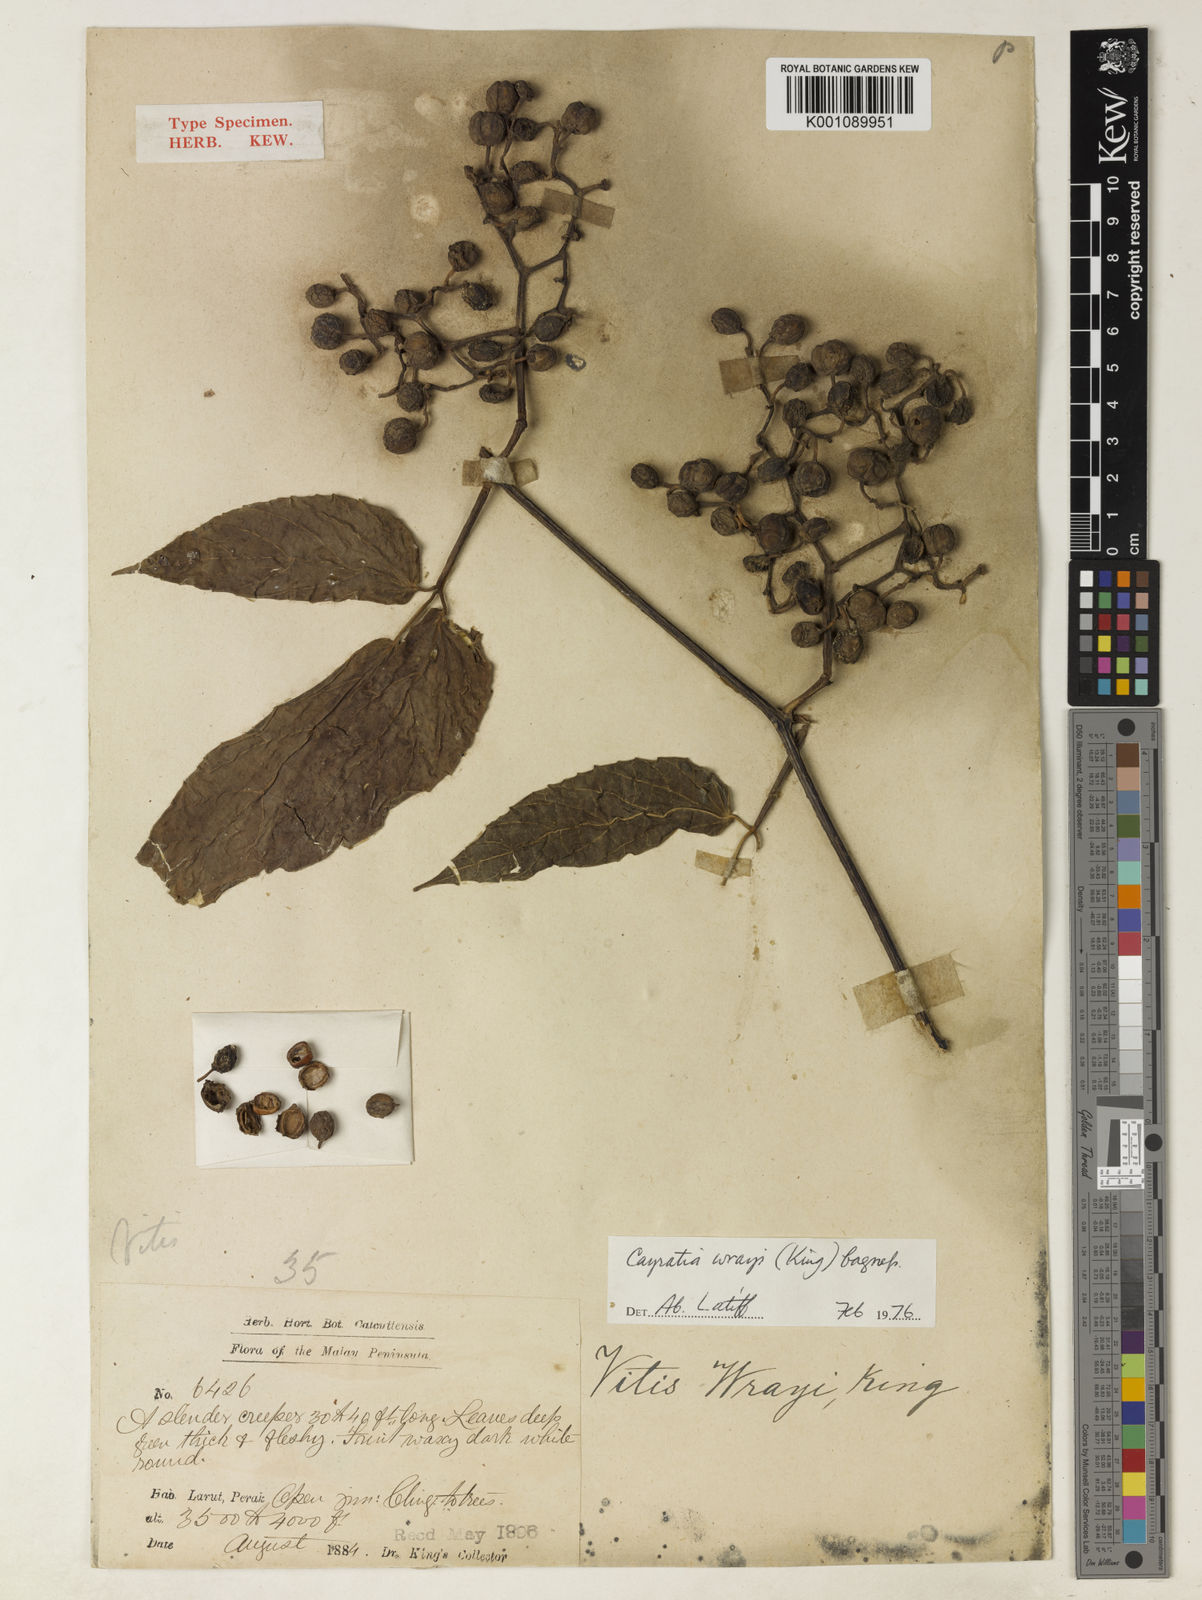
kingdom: Plantae
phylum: Tracheophyta
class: Magnoliopsida
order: Vitales
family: Vitaceae
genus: Cayratia
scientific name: Cayratia mollissima
